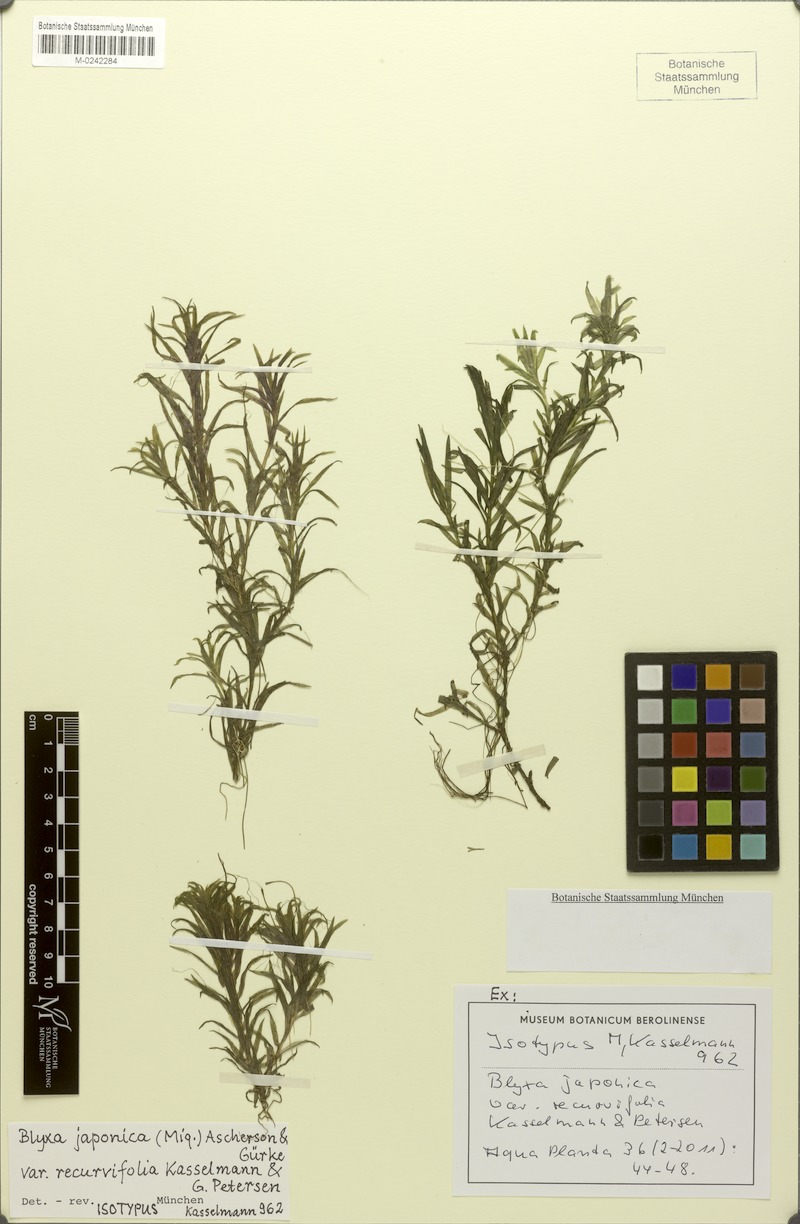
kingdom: Plantae
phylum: Tracheophyta
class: Liliopsida
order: Alismatales
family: Hydrocharitaceae
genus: Blyxa
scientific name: Blyxa japonica
